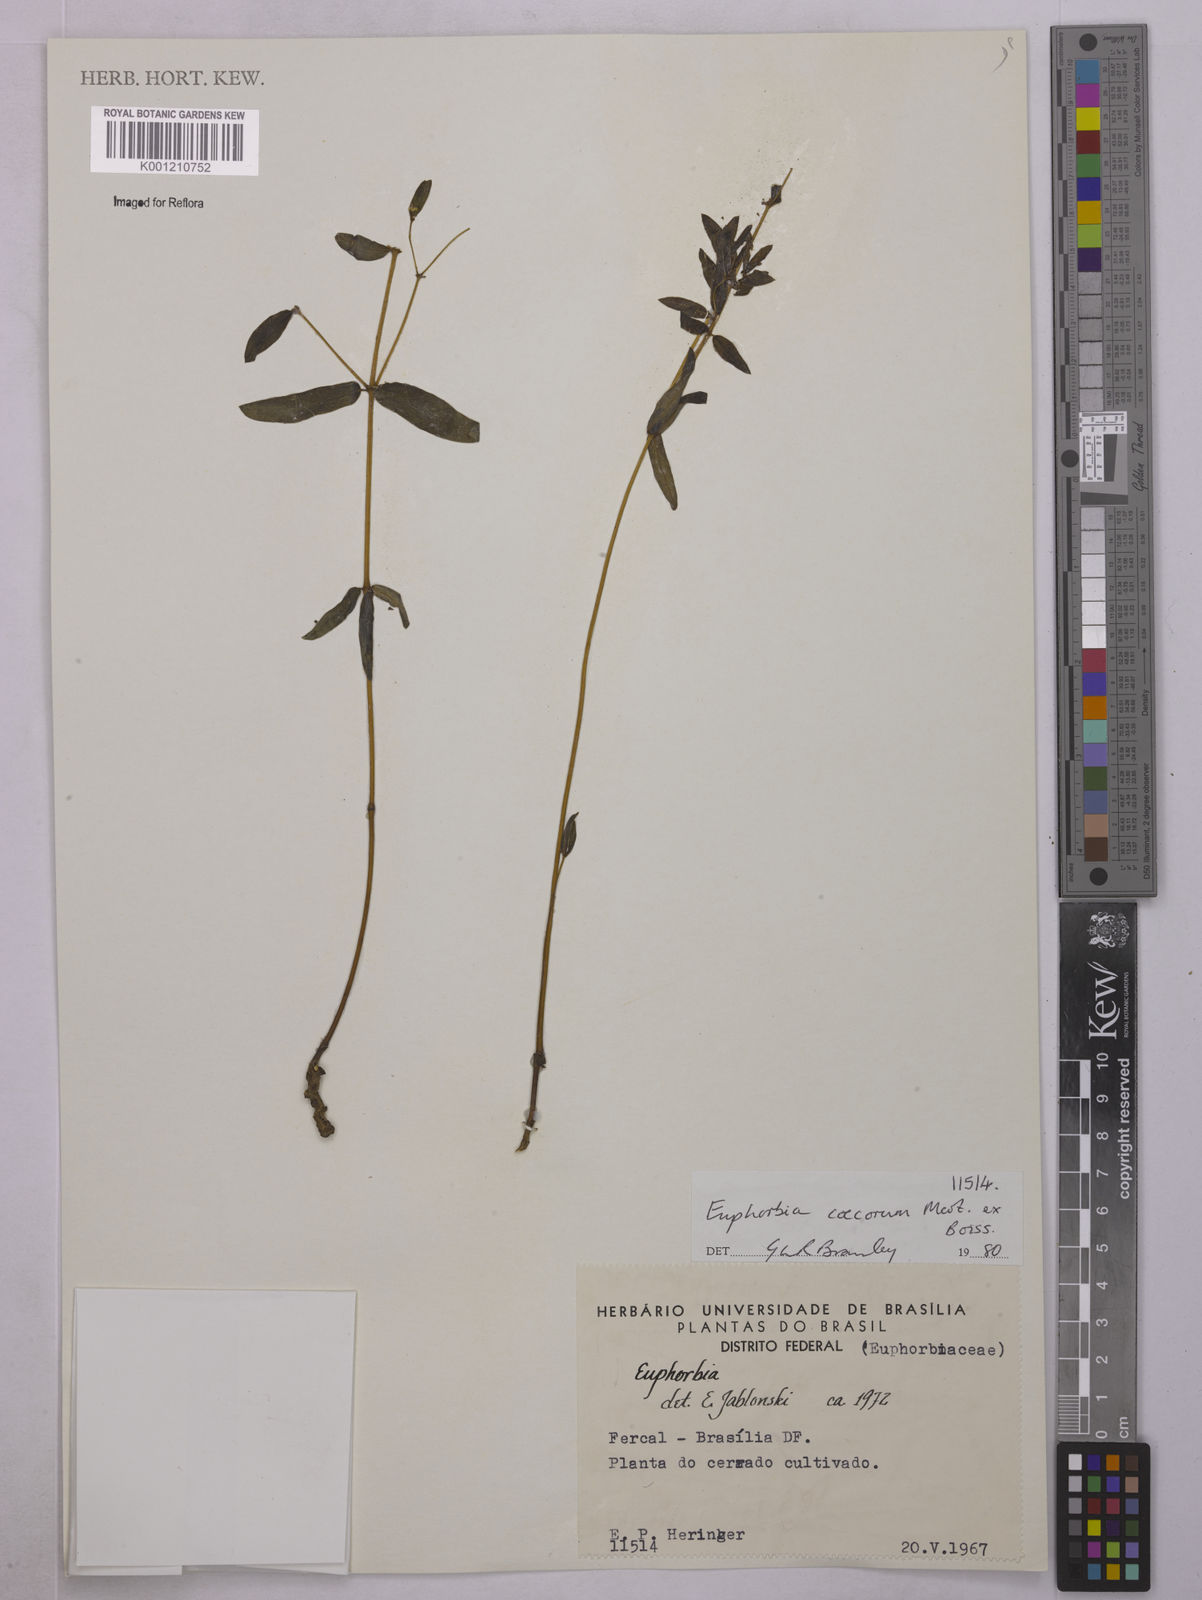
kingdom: Plantae
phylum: Tracheophyta
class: Magnoliopsida
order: Malpighiales
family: Euphorbiaceae
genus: Euphorbia
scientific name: Euphorbia potentilloides
